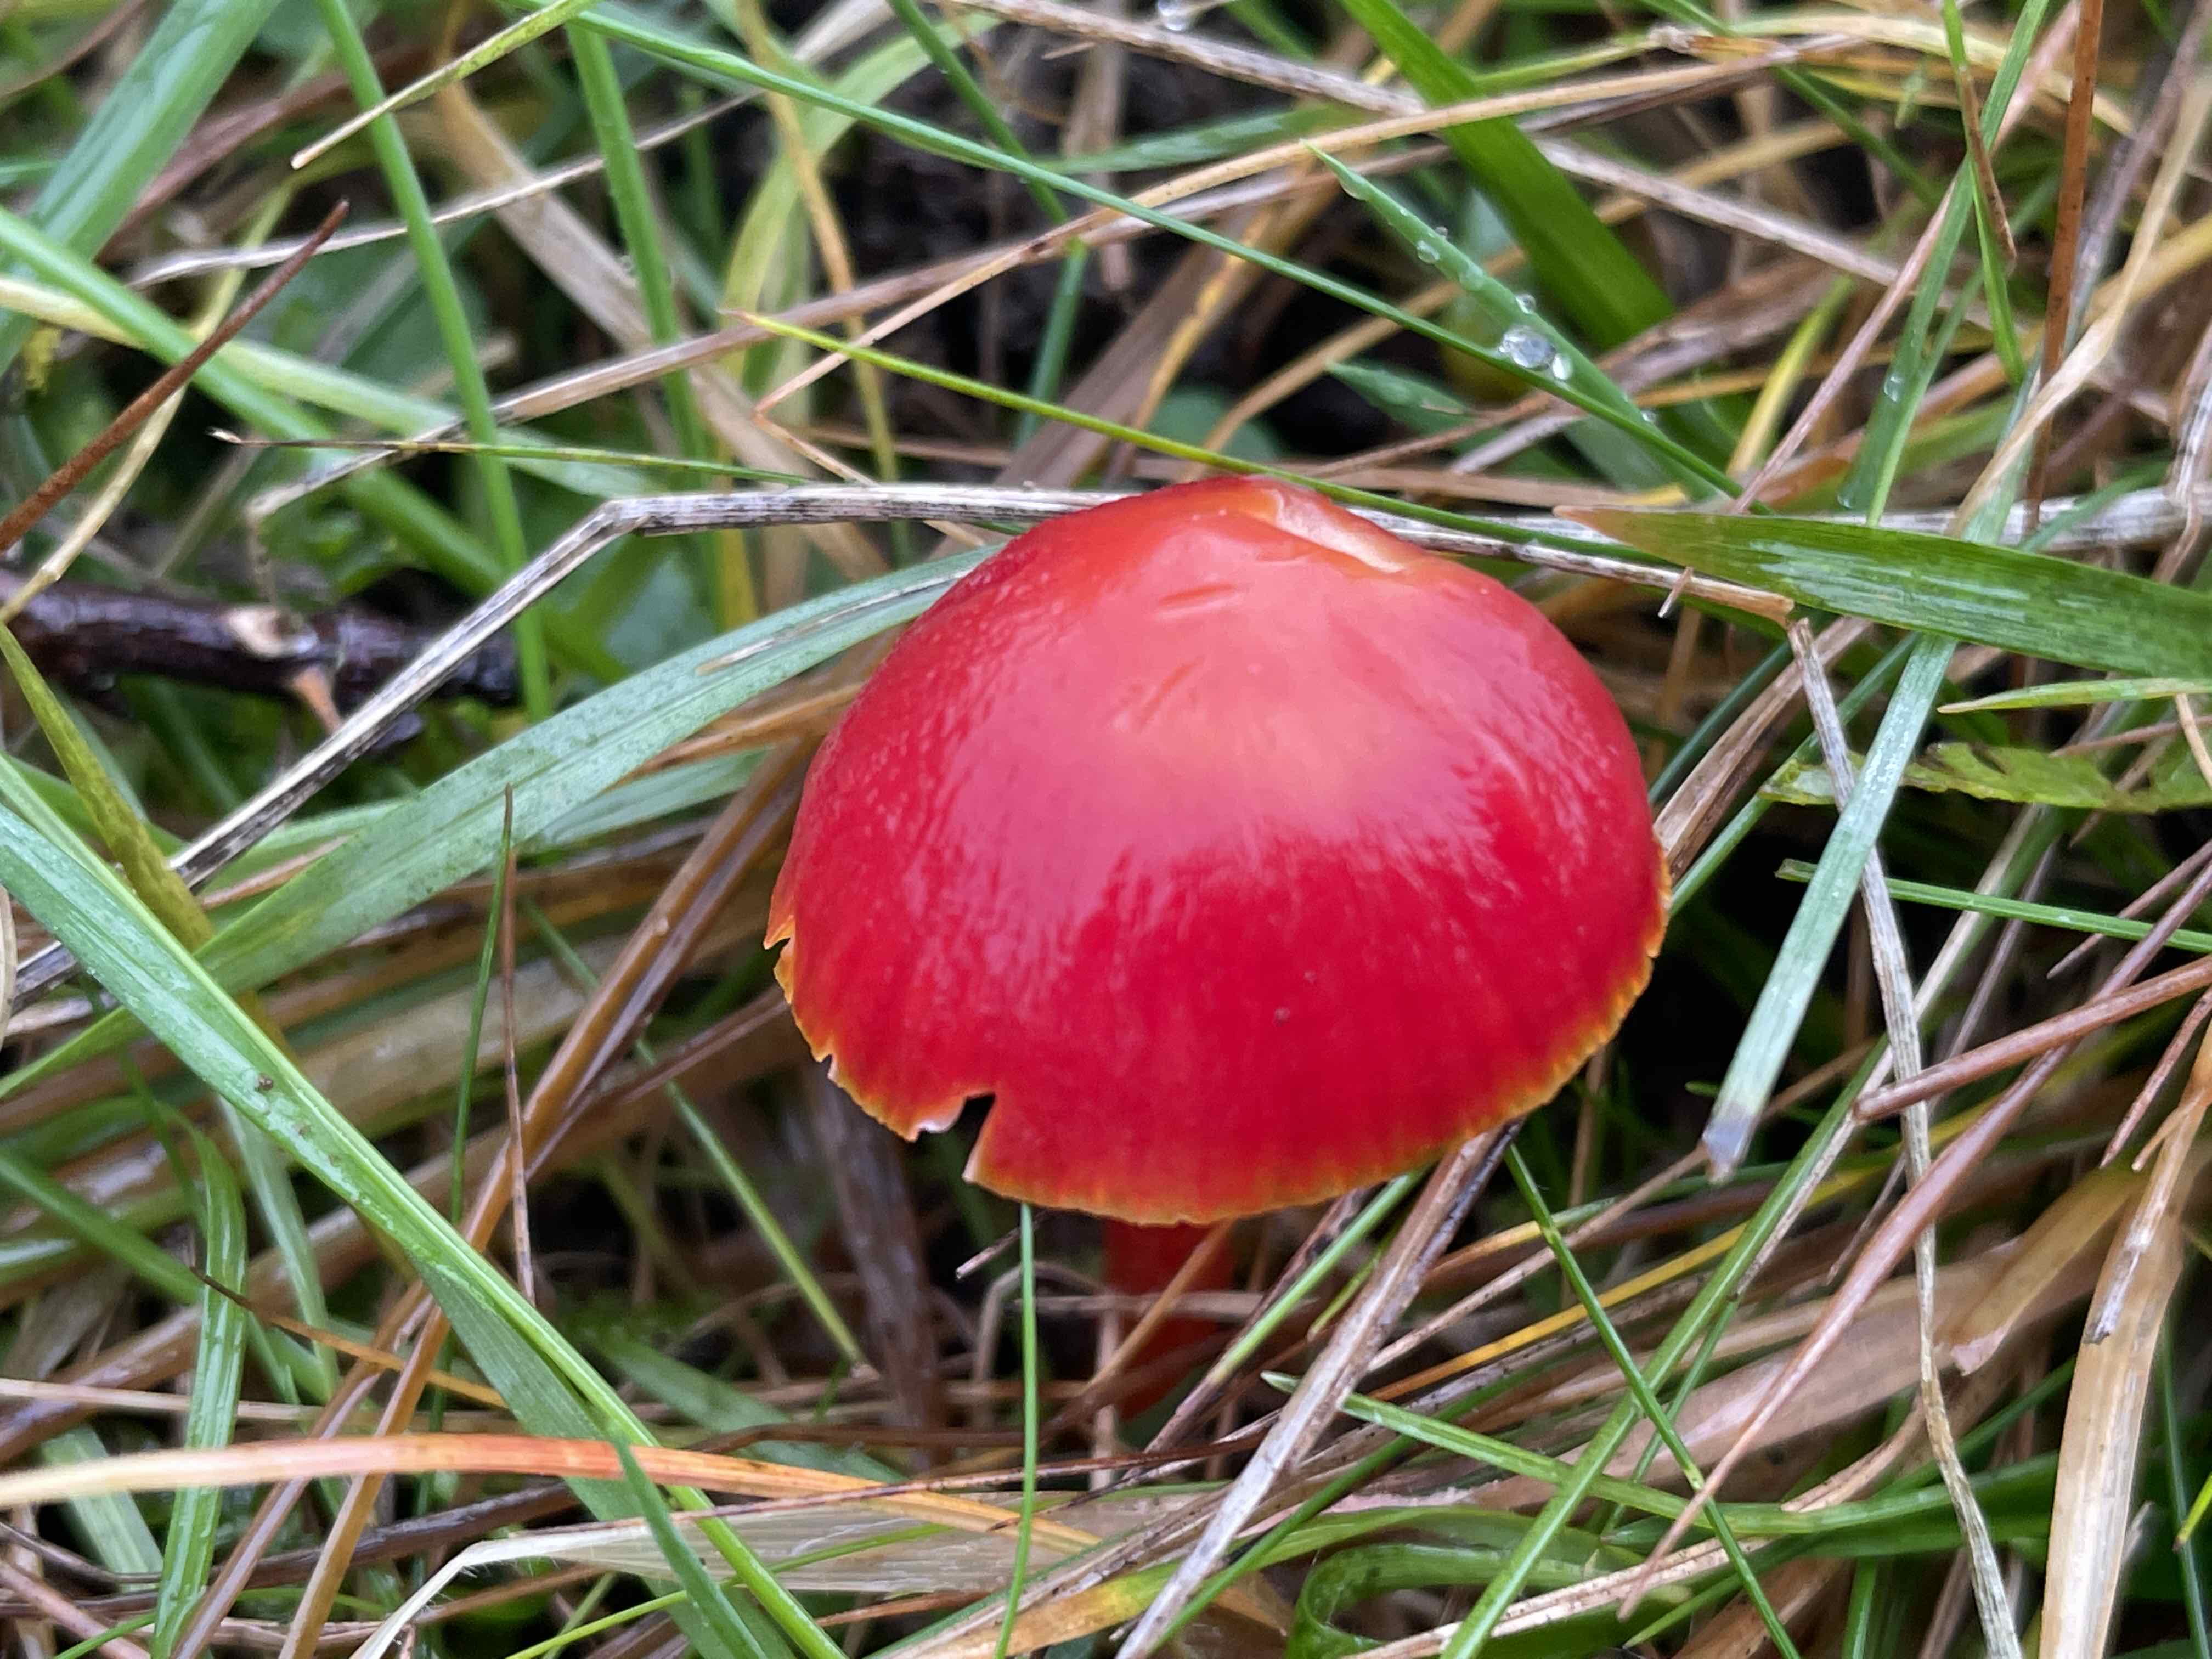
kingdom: Fungi
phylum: Basidiomycota
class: Agaricomycetes
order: Agaricales
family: Hygrophoraceae
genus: Hygrocybe
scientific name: Hygrocybe coccinea
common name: cinnober-vokshat
